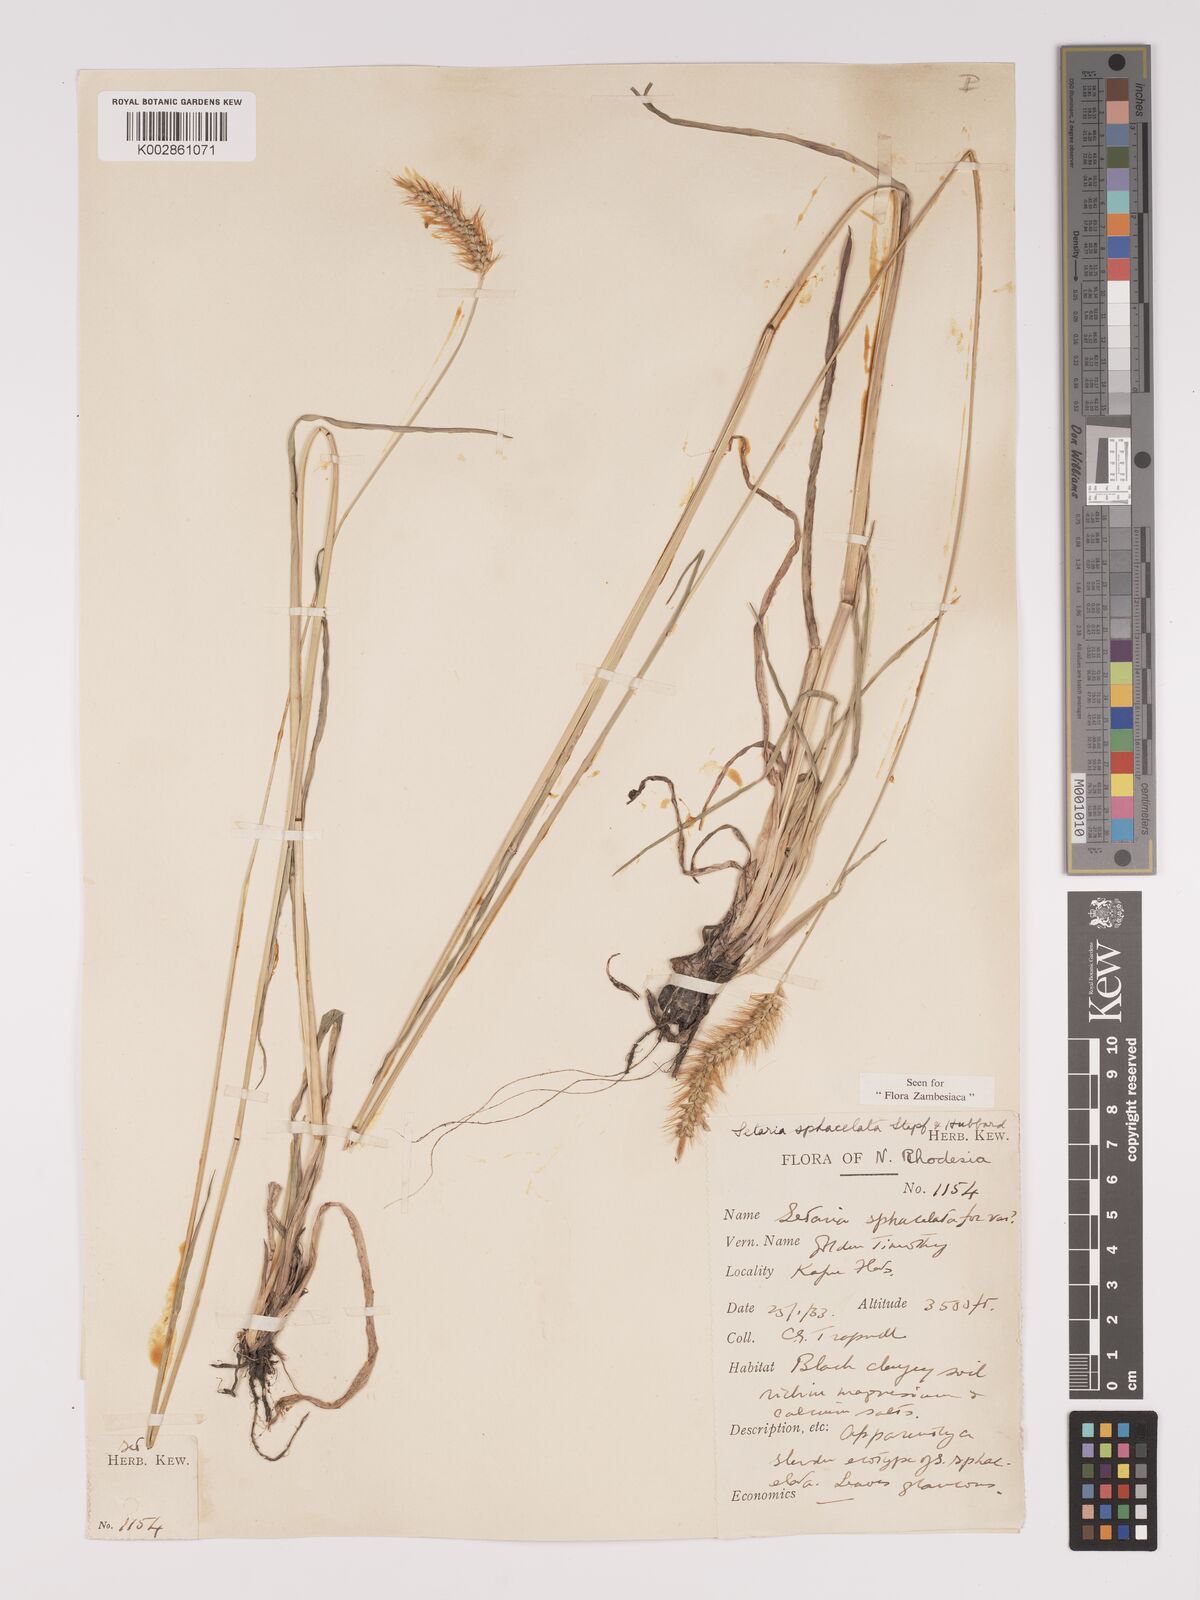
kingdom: Plantae
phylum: Tracheophyta
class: Liliopsida
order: Poales
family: Poaceae
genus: Setaria
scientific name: Setaria sphacelata
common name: African bristlegrass
